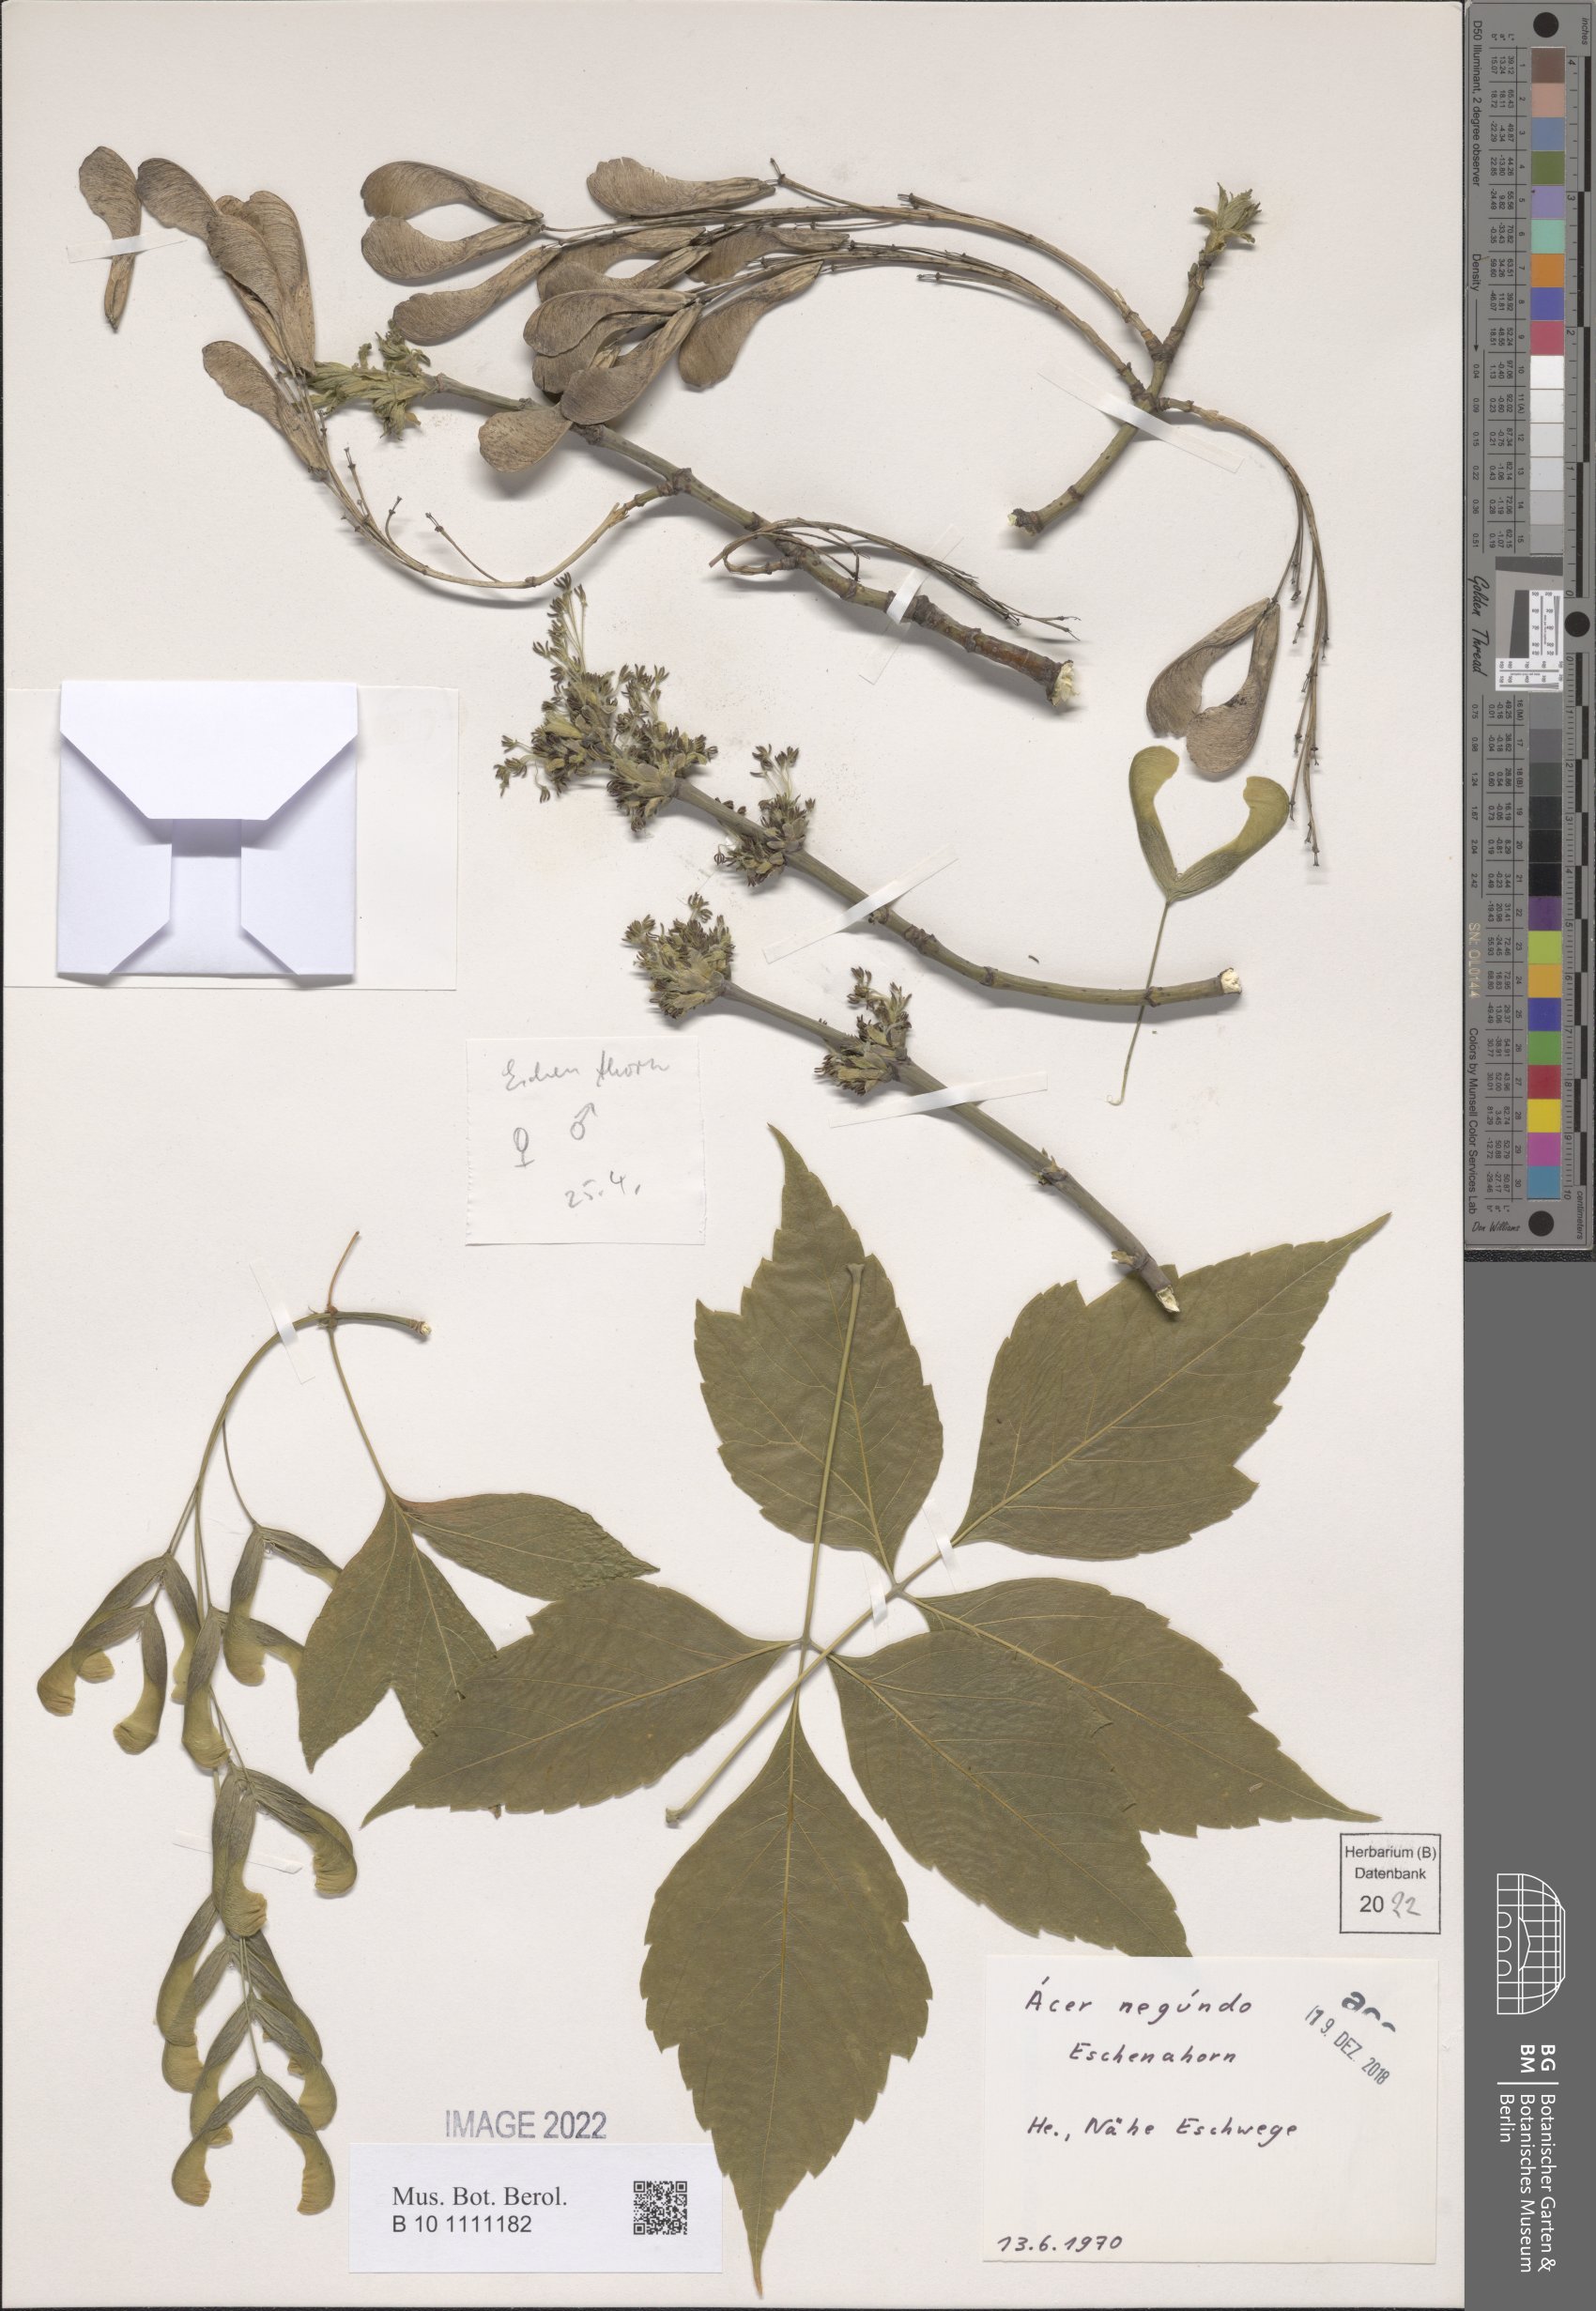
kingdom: Plantae
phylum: Tracheophyta
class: Magnoliopsida
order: Sapindales
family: Sapindaceae
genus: Acer
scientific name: Acer negundo
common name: Ashleaf maple
